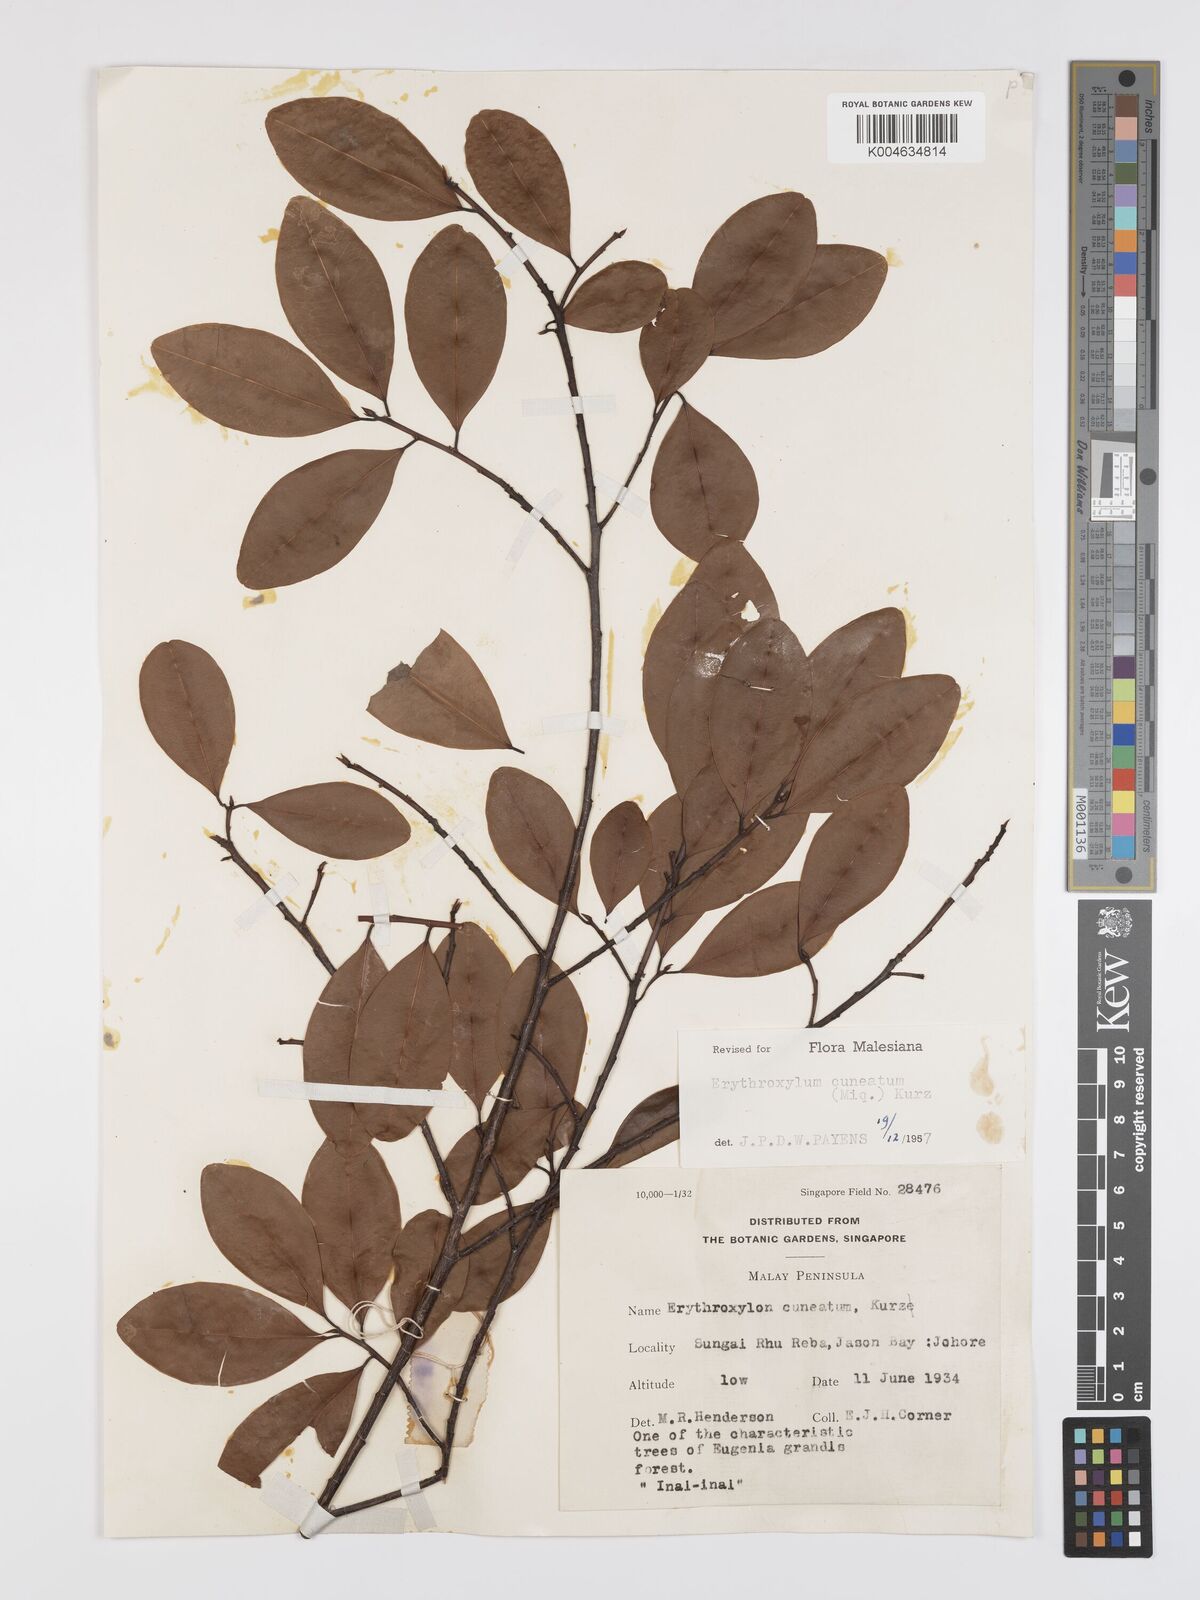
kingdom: Plantae
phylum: Tracheophyta
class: Magnoliopsida
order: Malpighiales
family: Erythroxylaceae
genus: Erythroxylum
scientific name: Erythroxylum cuneatum
